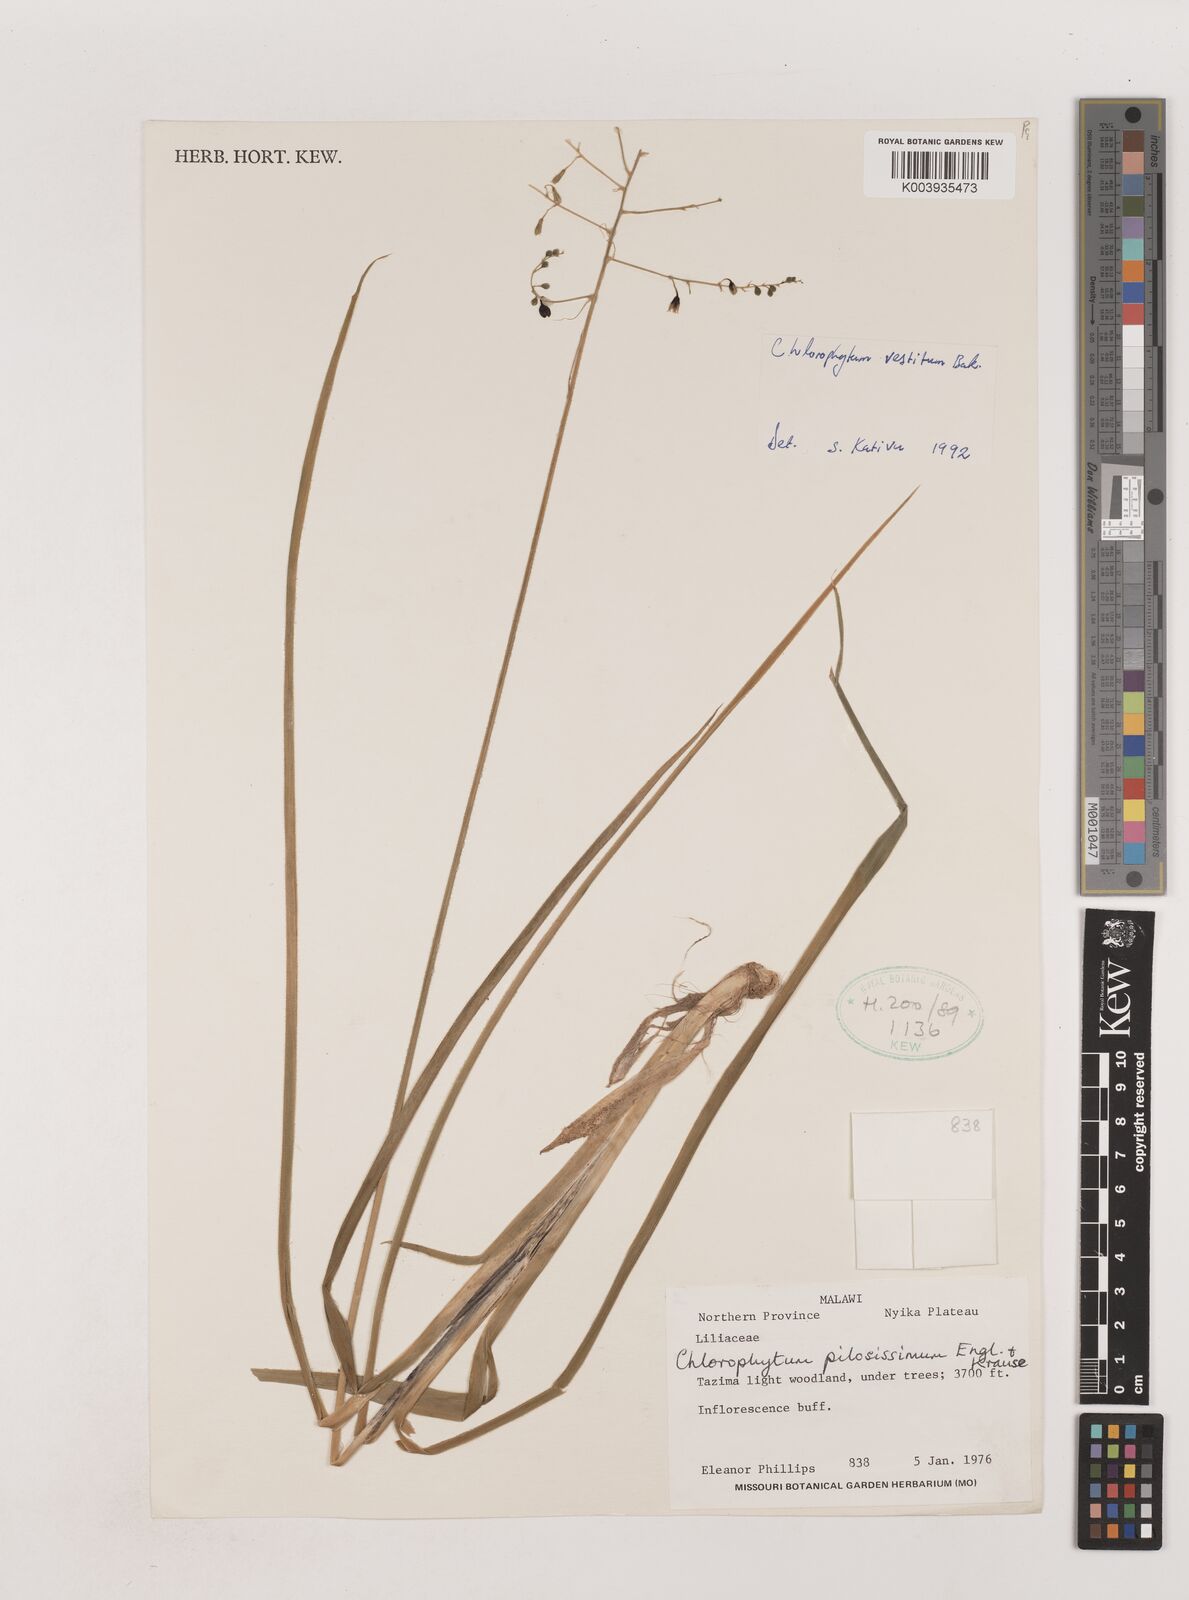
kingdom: Plantae
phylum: Tracheophyta
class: Liliopsida
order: Asparagales
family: Asparagaceae
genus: Chlorophytum
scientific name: Chlorophytum vestitum
